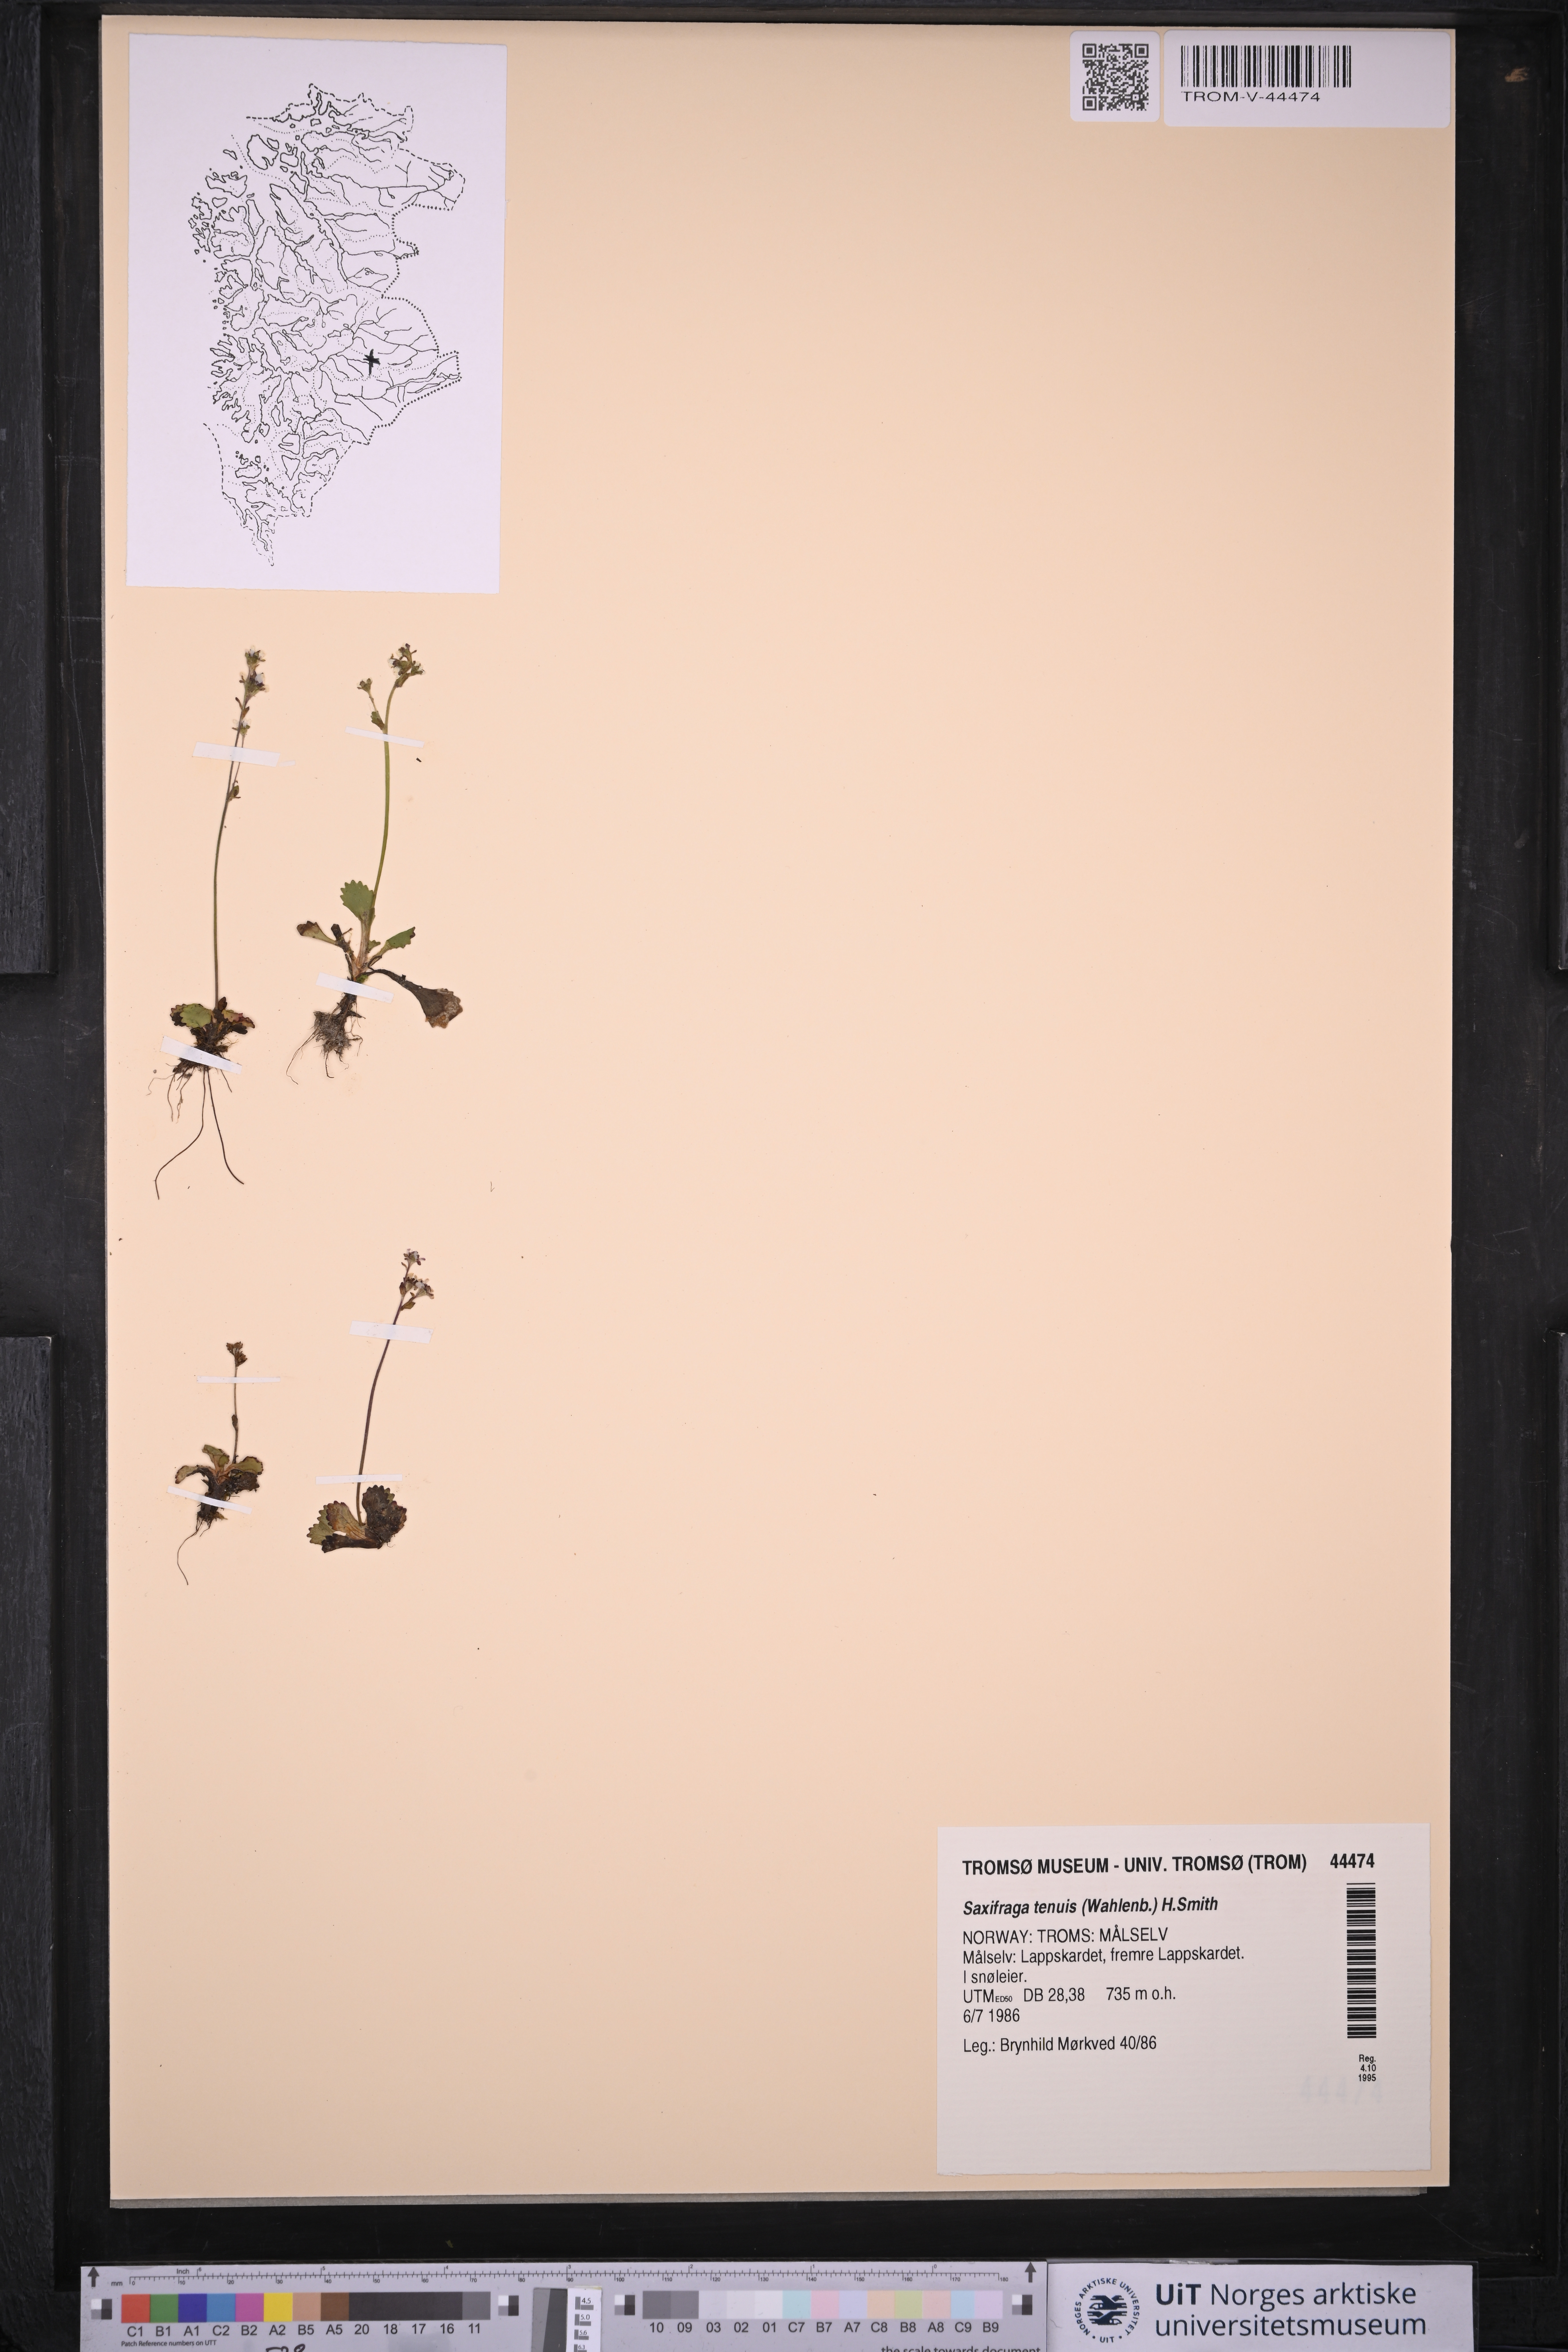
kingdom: Plantae
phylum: Tracheophyta
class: Magnoliopsida
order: Saxifragales
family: Saxifragaceae
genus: Micranthes
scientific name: Micranthes tenuis
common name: Ottertail pass saxifrage
